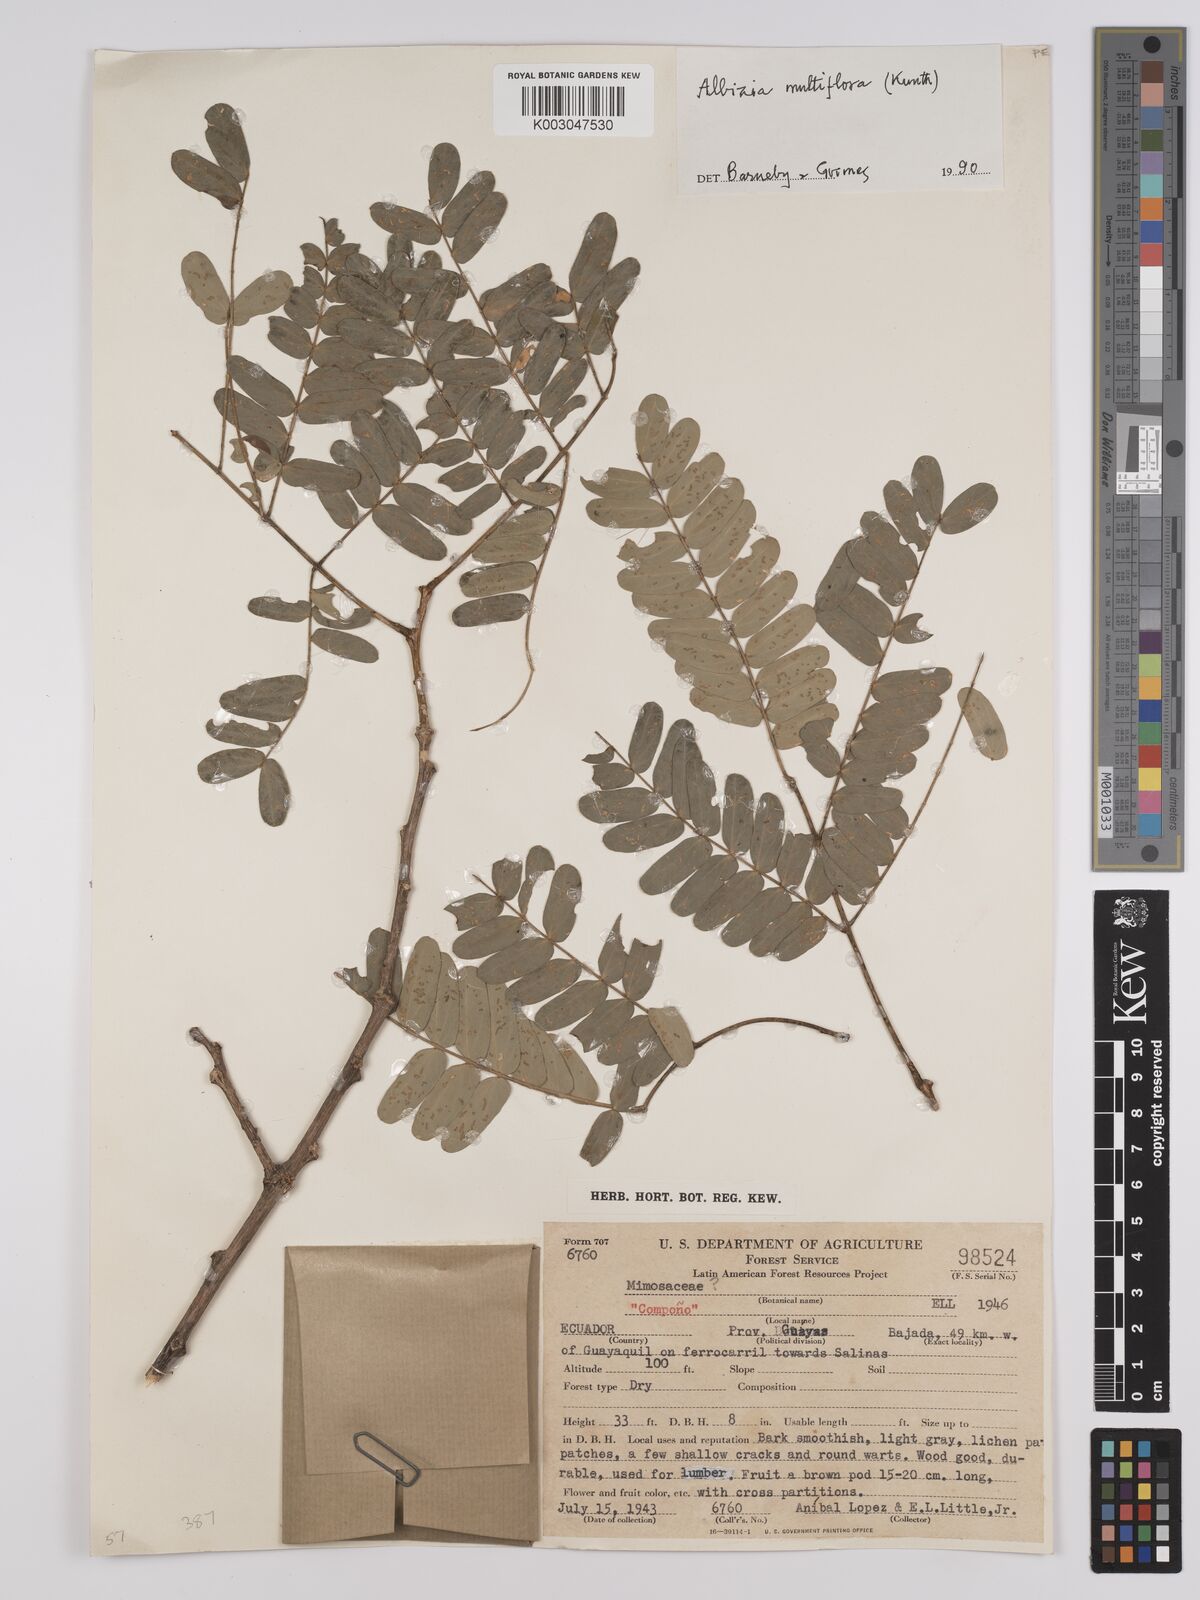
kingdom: Plantae
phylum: Tracheophyta
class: Magnoliopsida
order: Fabales
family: Fabaceae
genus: Albizia
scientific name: Albizia multiflora
